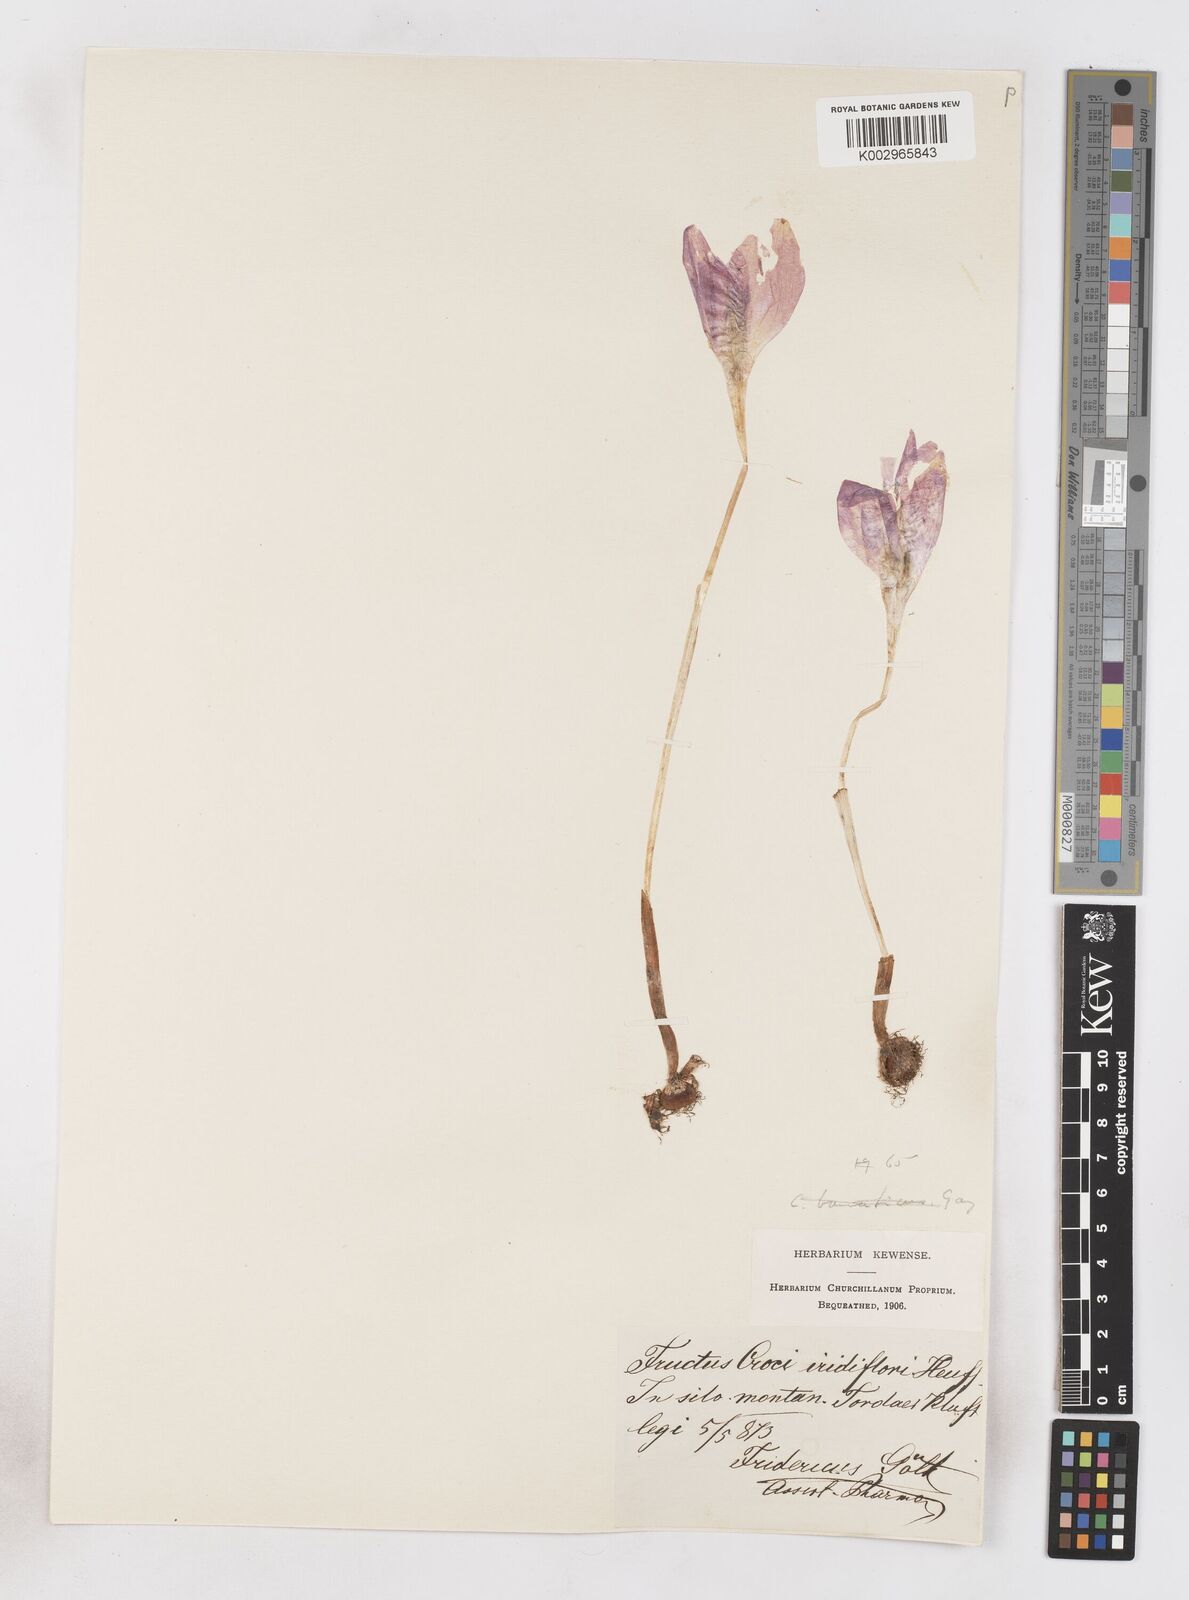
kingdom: Plantae
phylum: Tracheophyta
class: Liliopsida
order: Asparagales
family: Iridaceae
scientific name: Iridaceae
